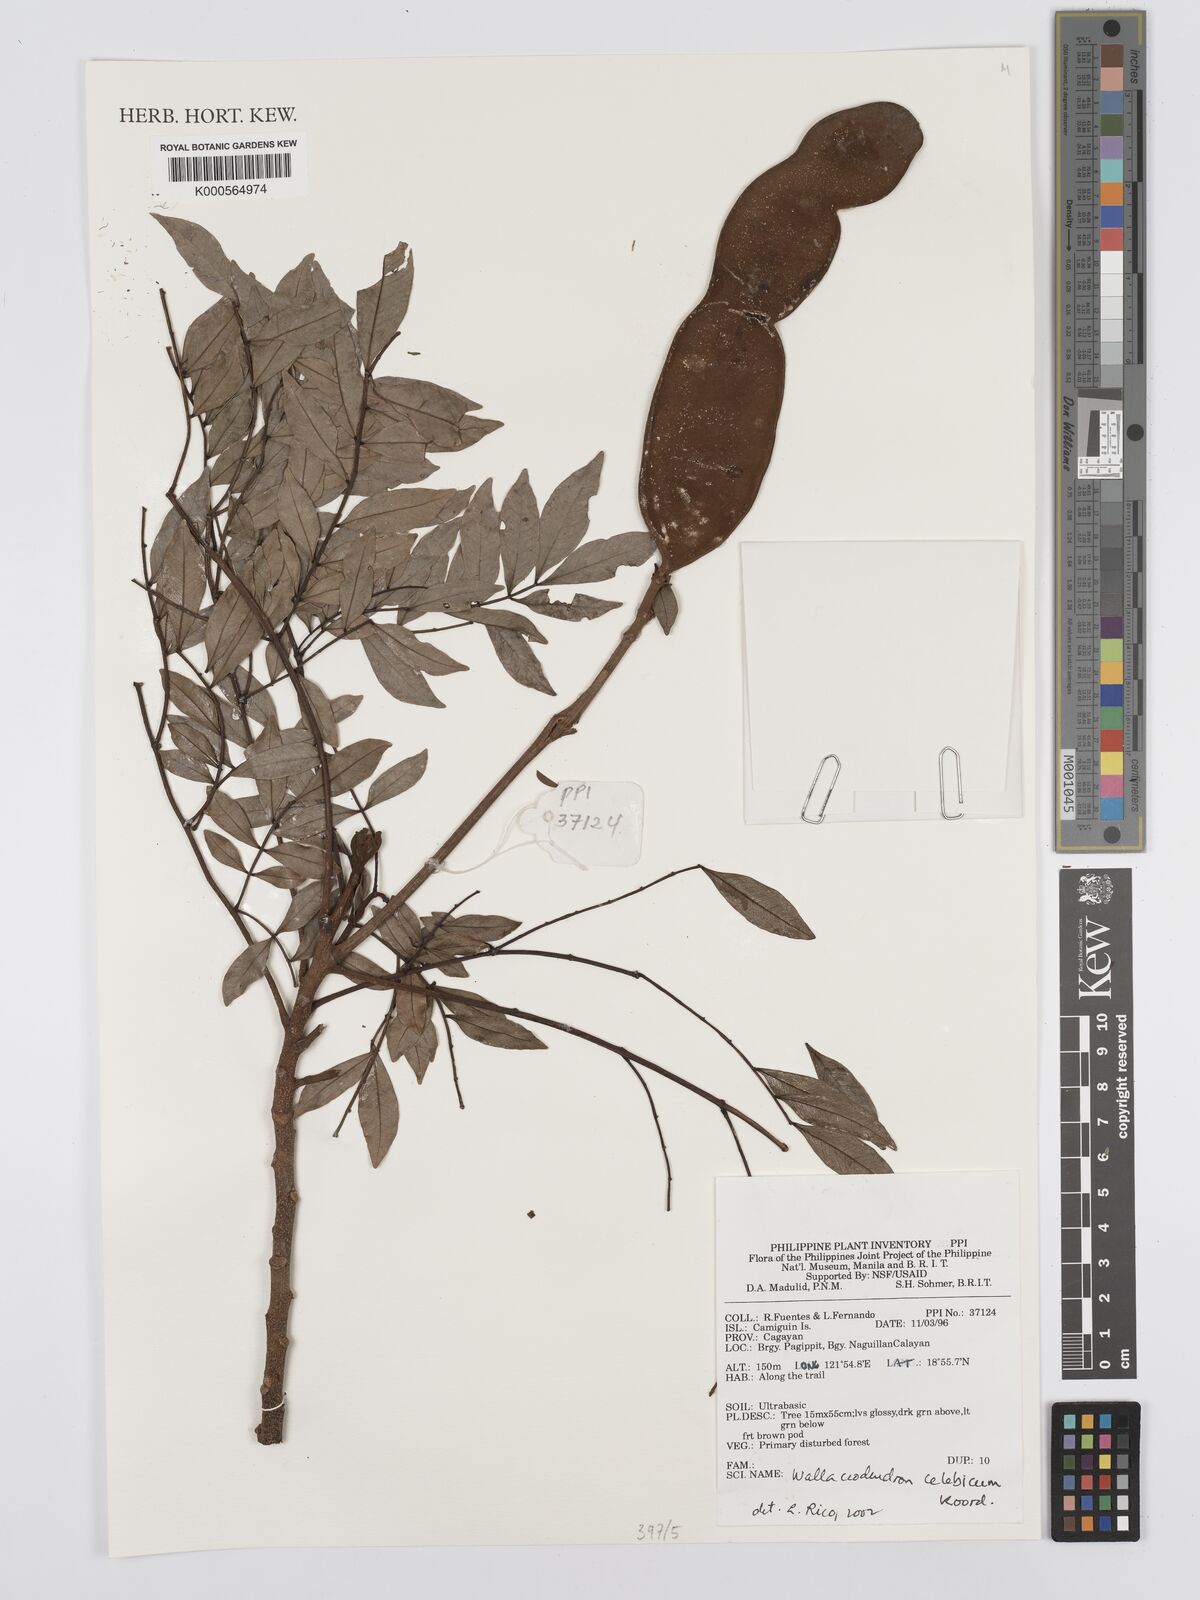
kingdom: Plantae
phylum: Tracheophyta
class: Magnoliopsida
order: Fabales
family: Fabaceae
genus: Wallaceodendron
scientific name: Wallaceodendron celebicum
